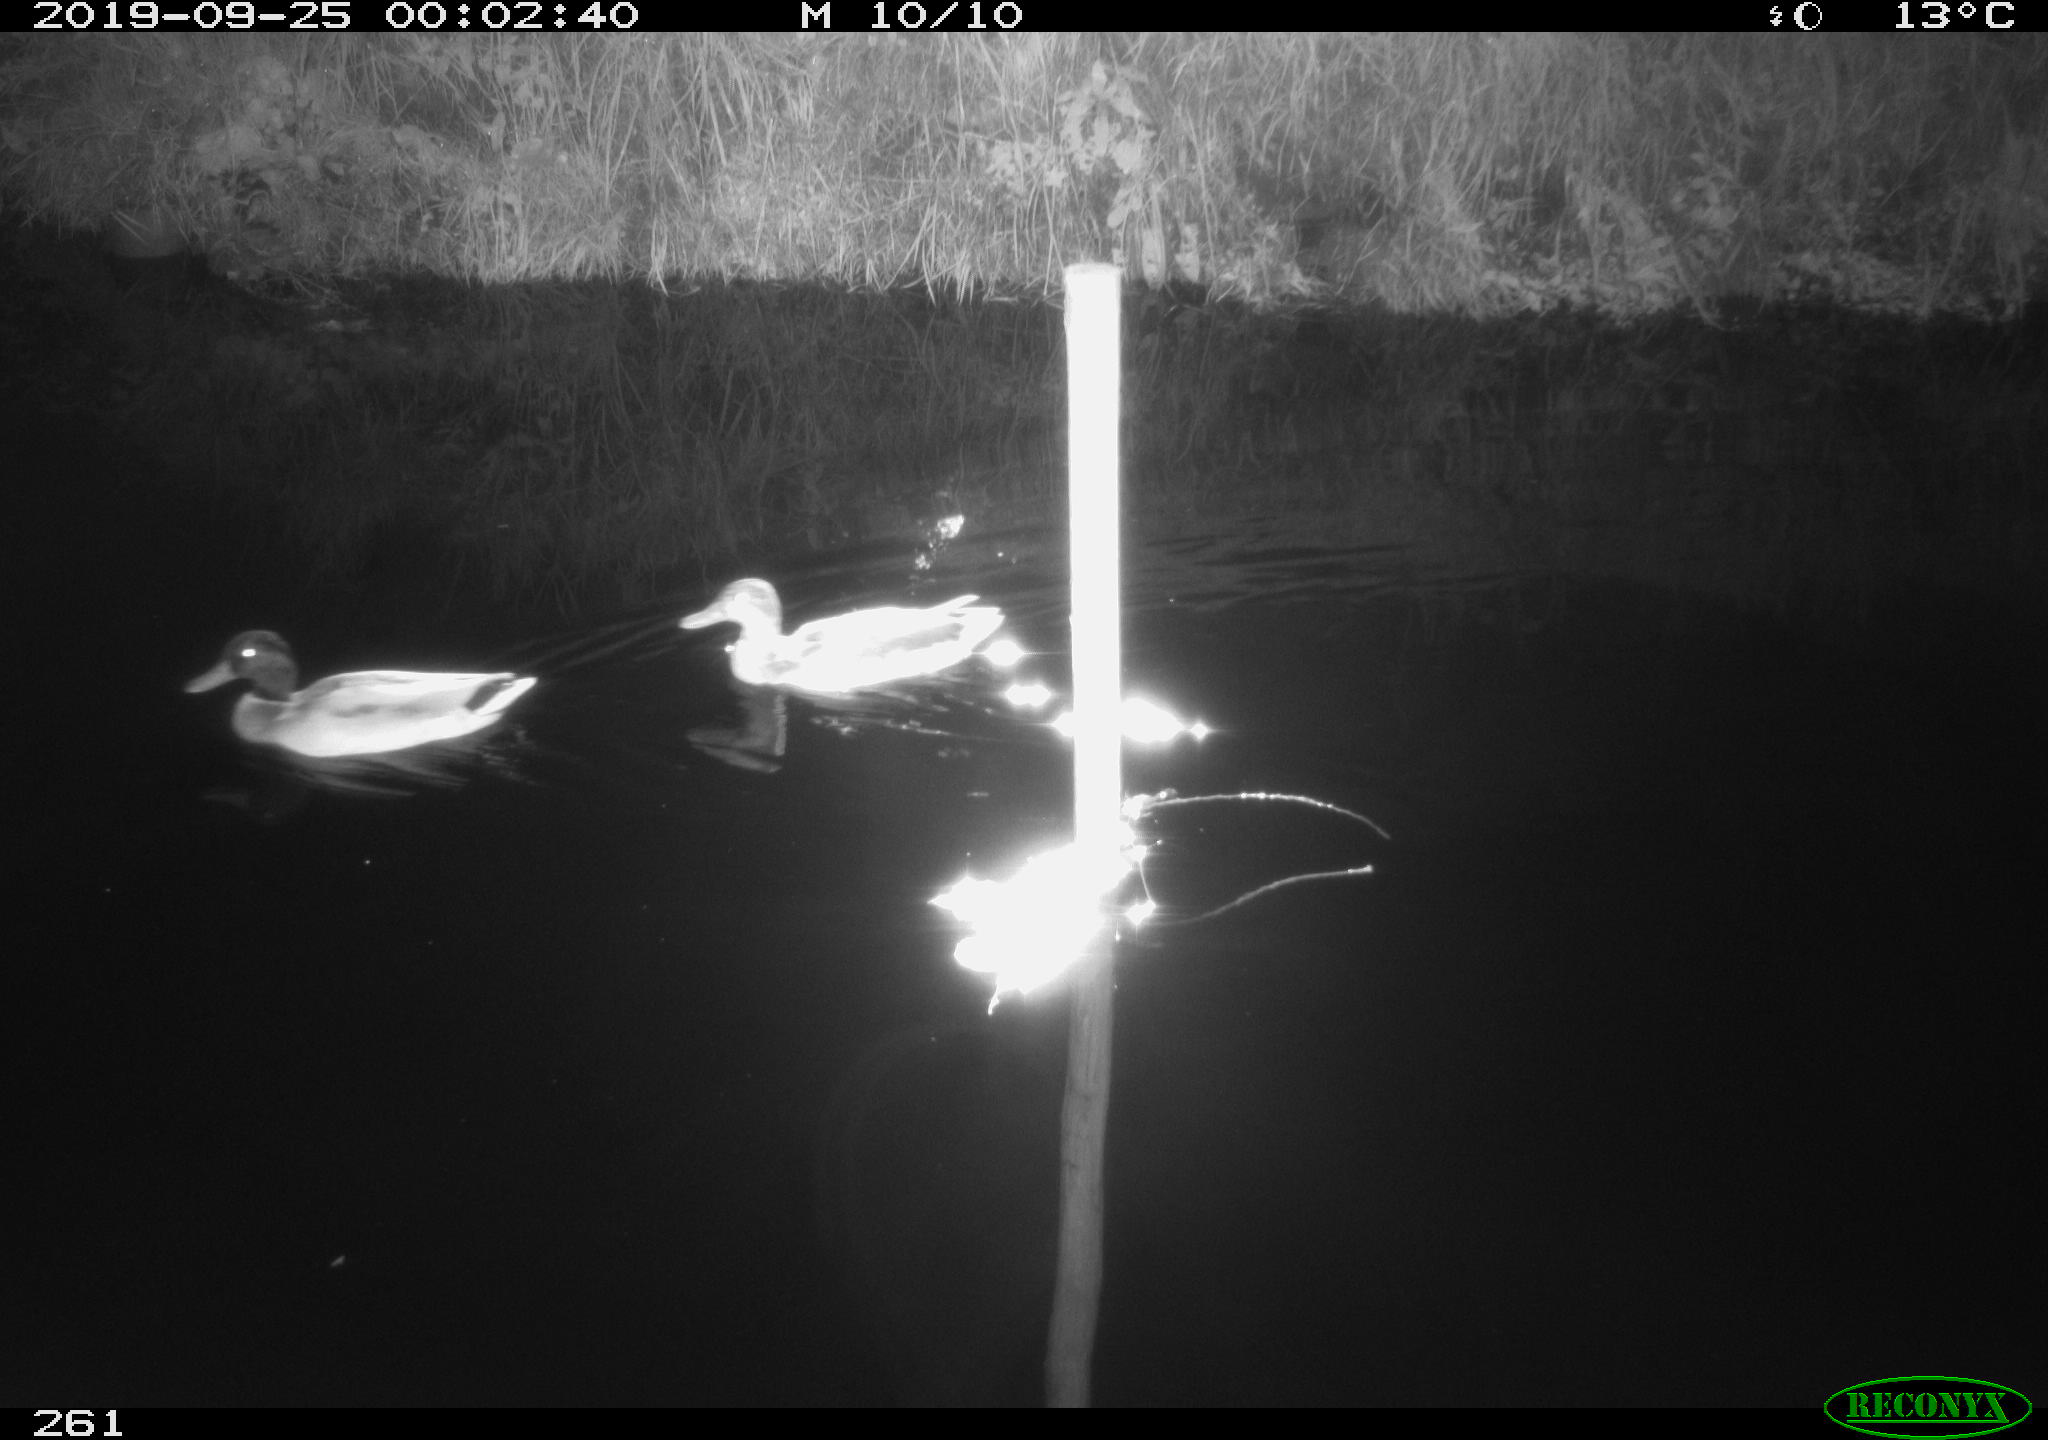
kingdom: Animalia
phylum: Chordata
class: Aves
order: Anseriformes
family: Anatidae
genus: Anas
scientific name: Anas platyrhynchos
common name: Mallard
